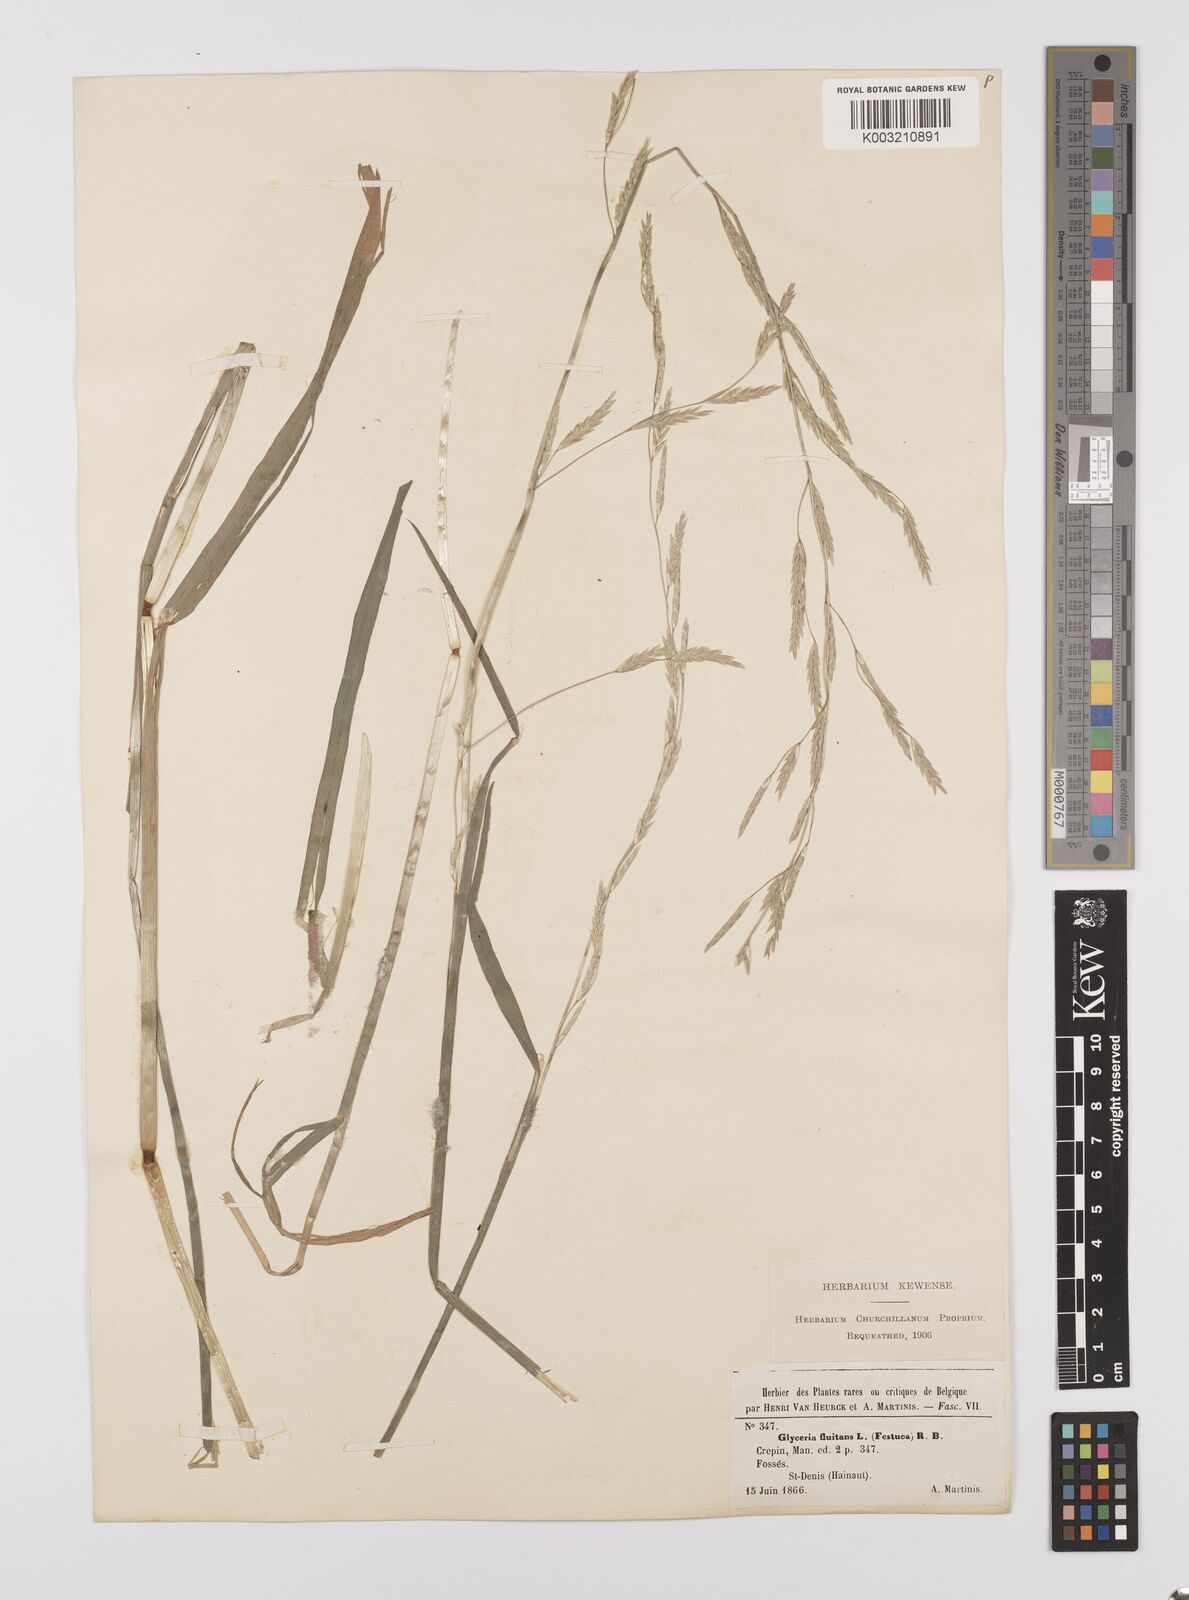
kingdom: Plantae
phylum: Tracheophyta
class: Liliopsida
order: Poales
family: Poaceae
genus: Glyceria
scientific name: Glyceria fluitans
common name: Floating sweet-grass
